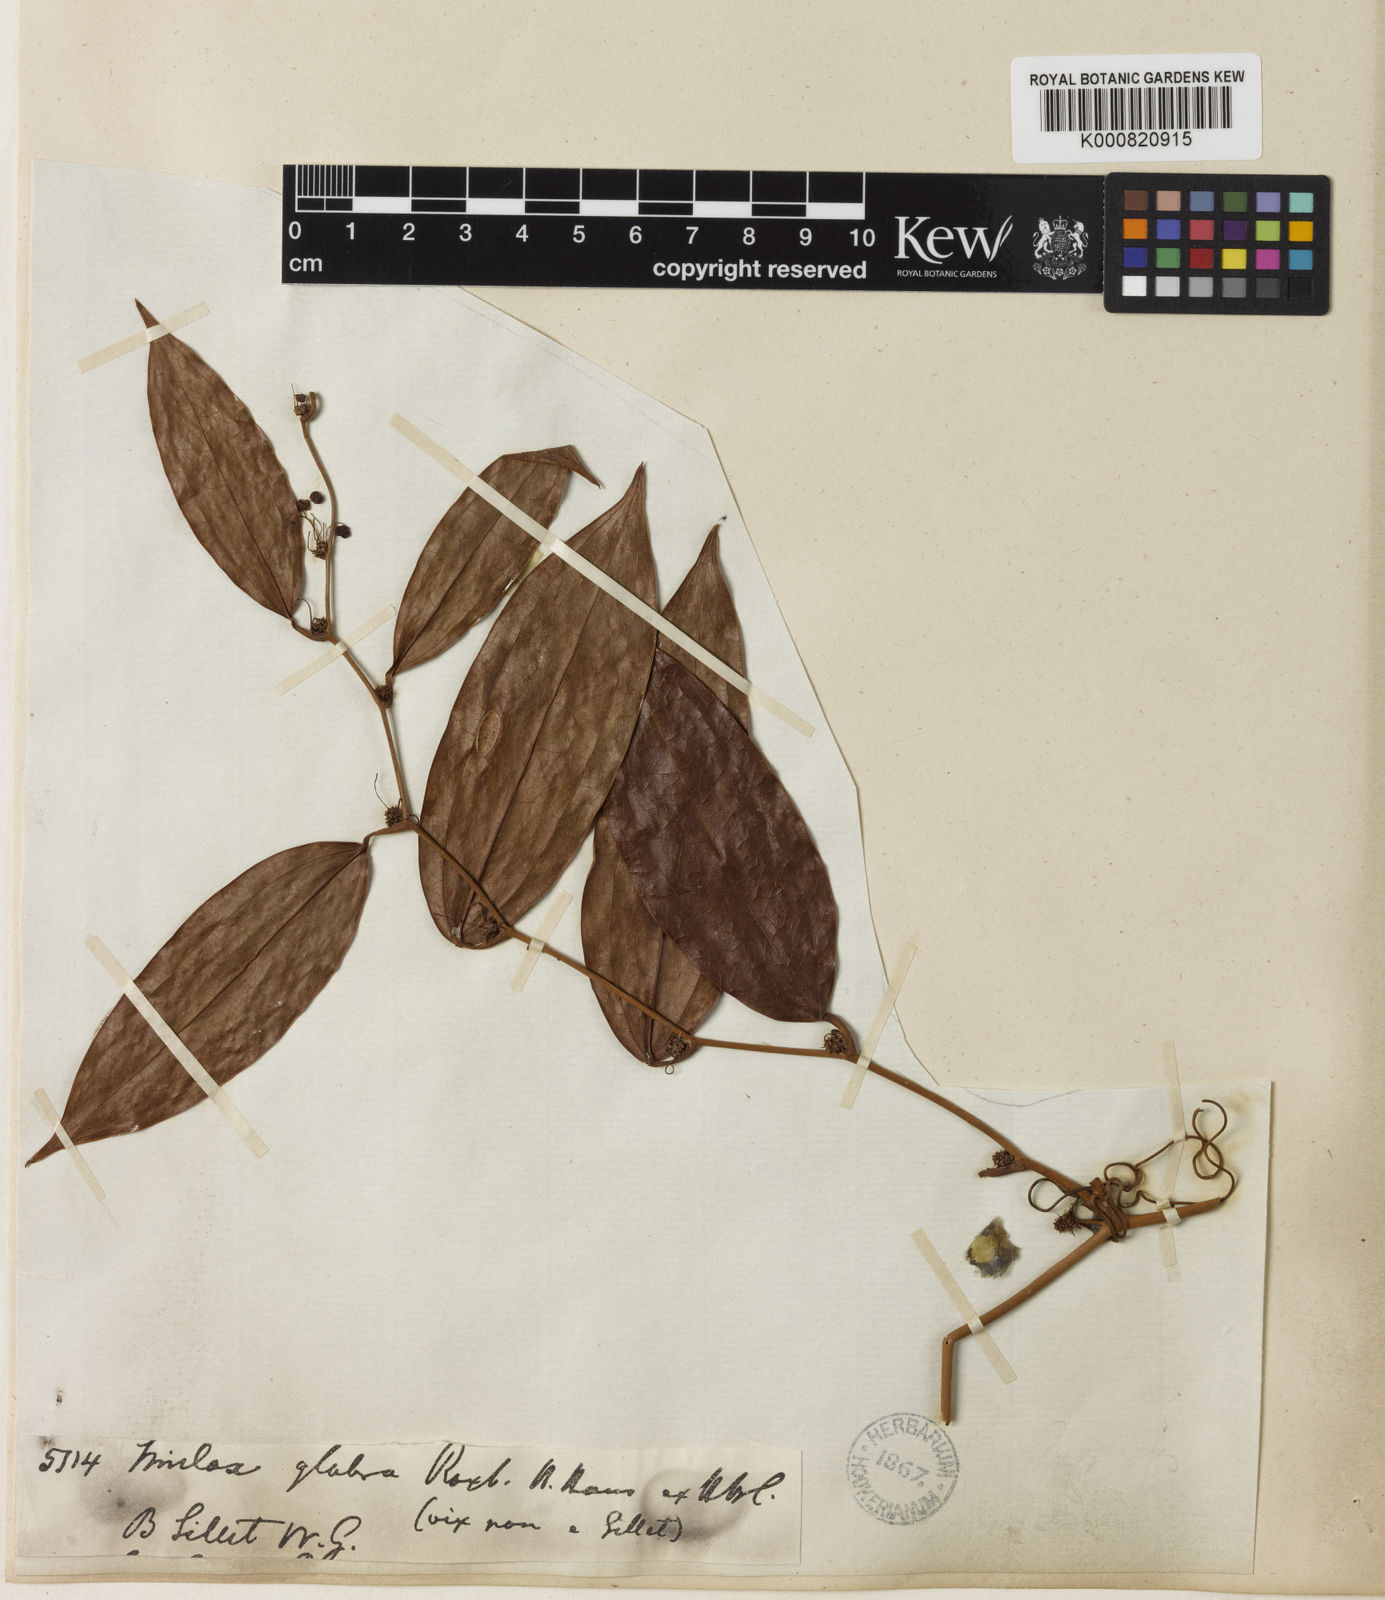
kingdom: Plantae
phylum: Tracheophyta
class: Liliopsida
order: Liliales
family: Smilacaceae
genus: Smilax
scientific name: Smilax glabra
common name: Chinese smilax
